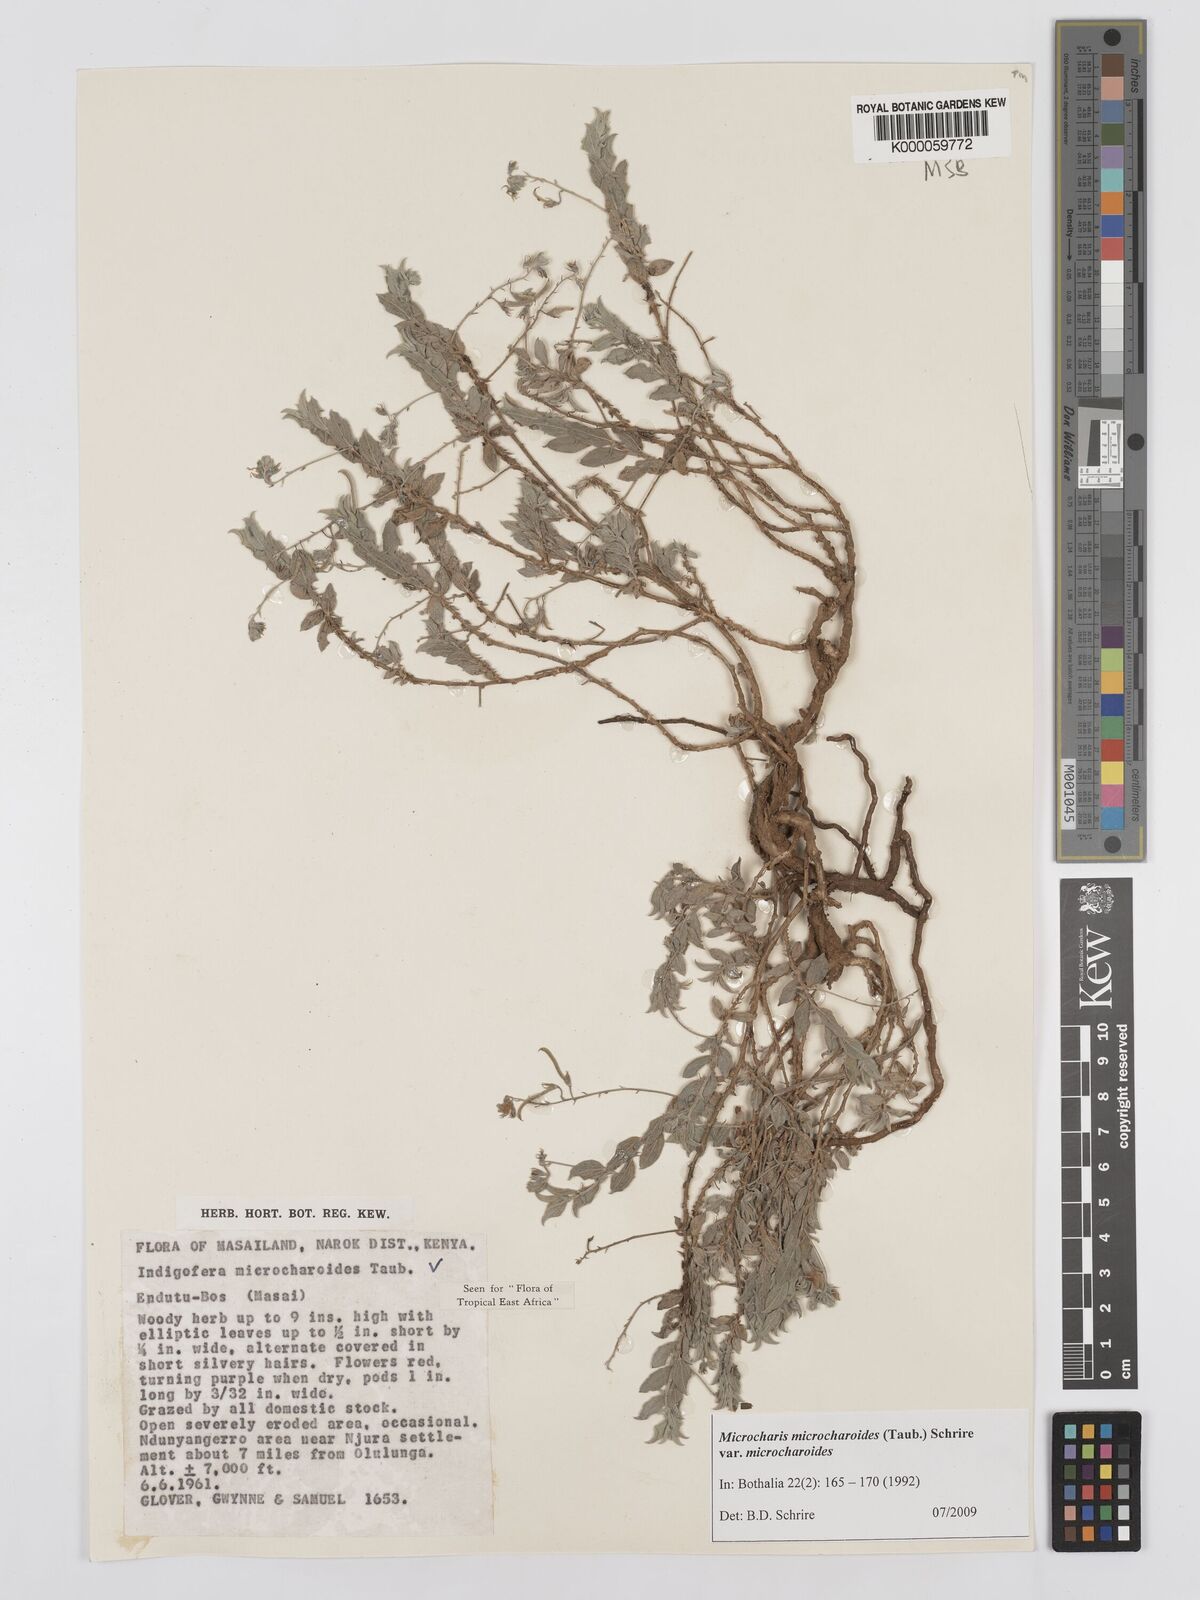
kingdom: Plantae
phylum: Tracheophyta
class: Magnoliopsida
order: Fabales
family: Fabaceae
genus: Microcharis
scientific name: Microcharis microcharoides
